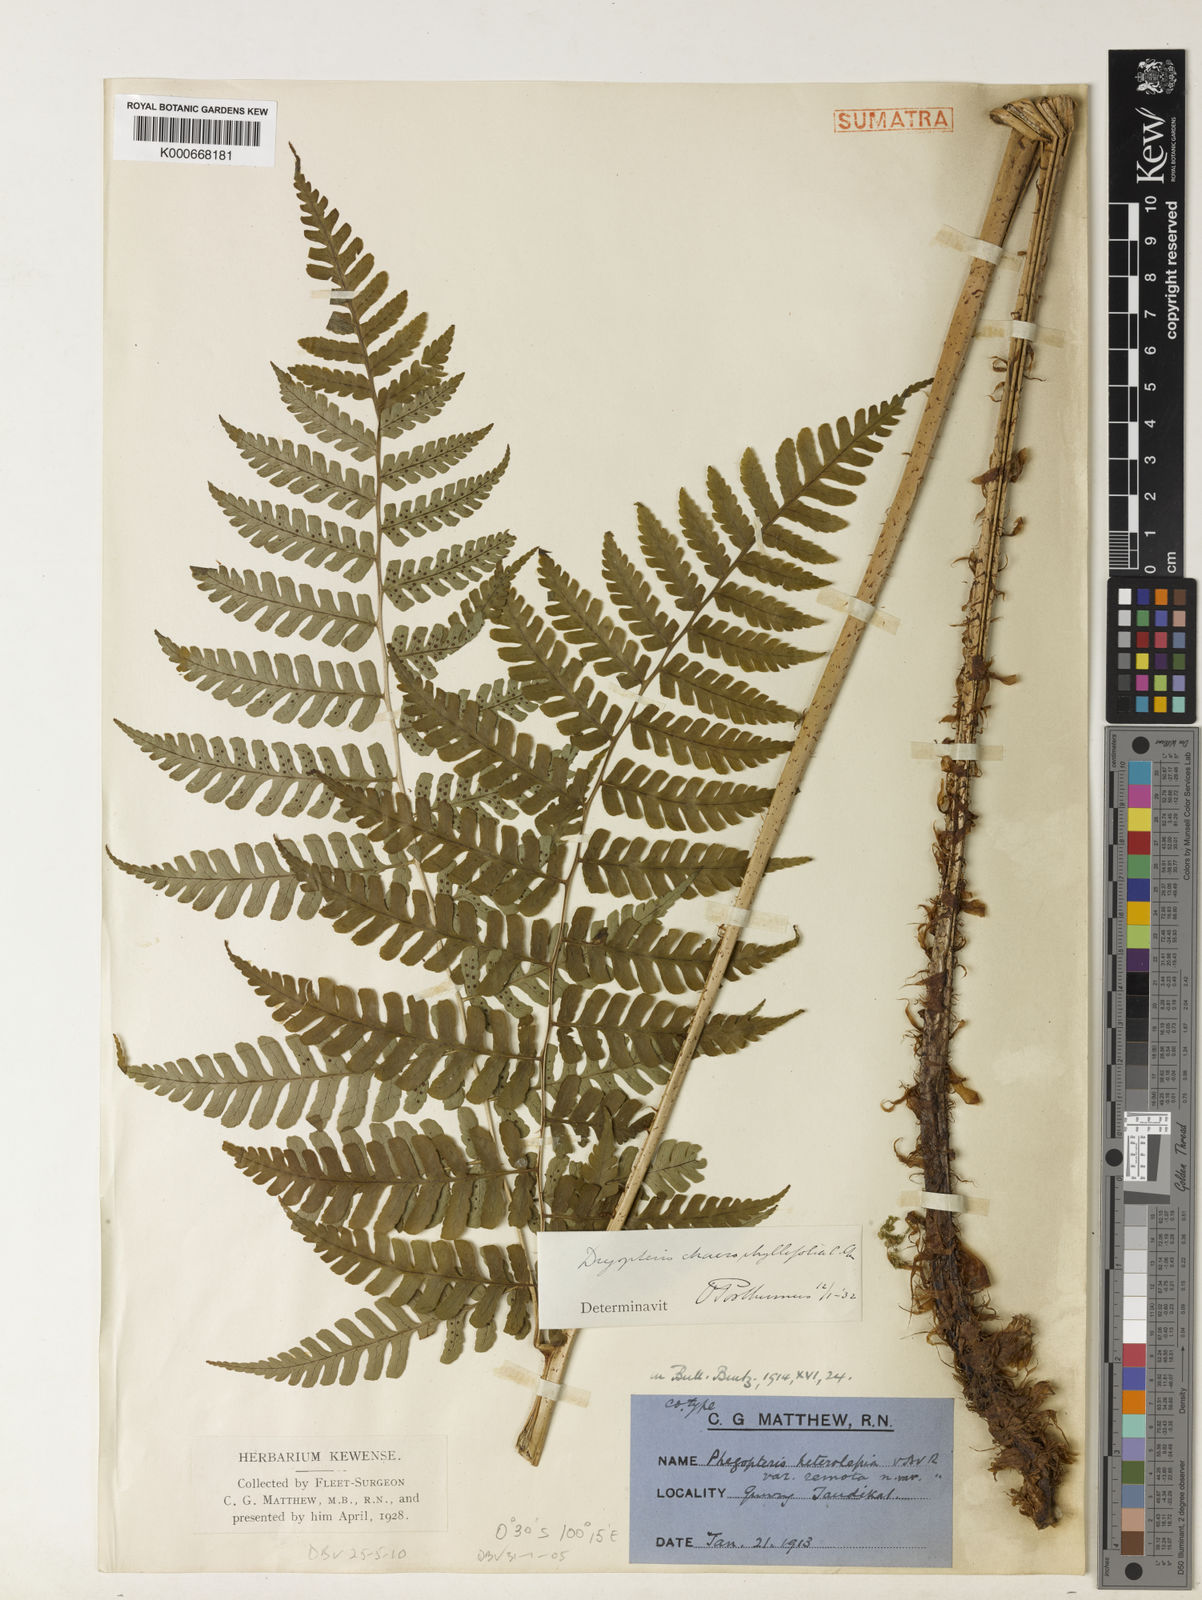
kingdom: Plantae
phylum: Tracheophyta
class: Polypodiopsida
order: Polypodiales
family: Dryopteridaceae
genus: Dryopteris
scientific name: Dryopteris chaerophyllifolia
